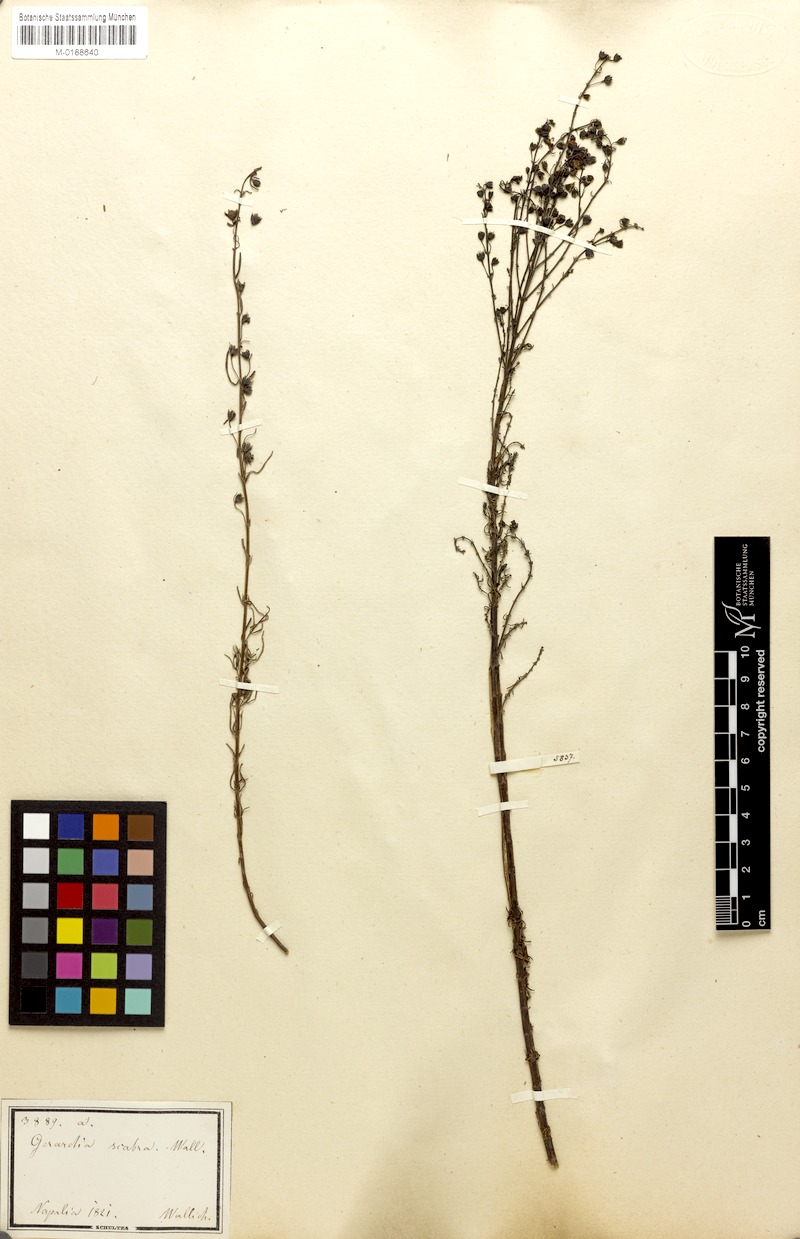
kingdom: Plantae
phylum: Tracheophyta
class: Magnoliopsida
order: Lamiales
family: Orobanchaceae
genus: Sopubia
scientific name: Sopubia trifida
